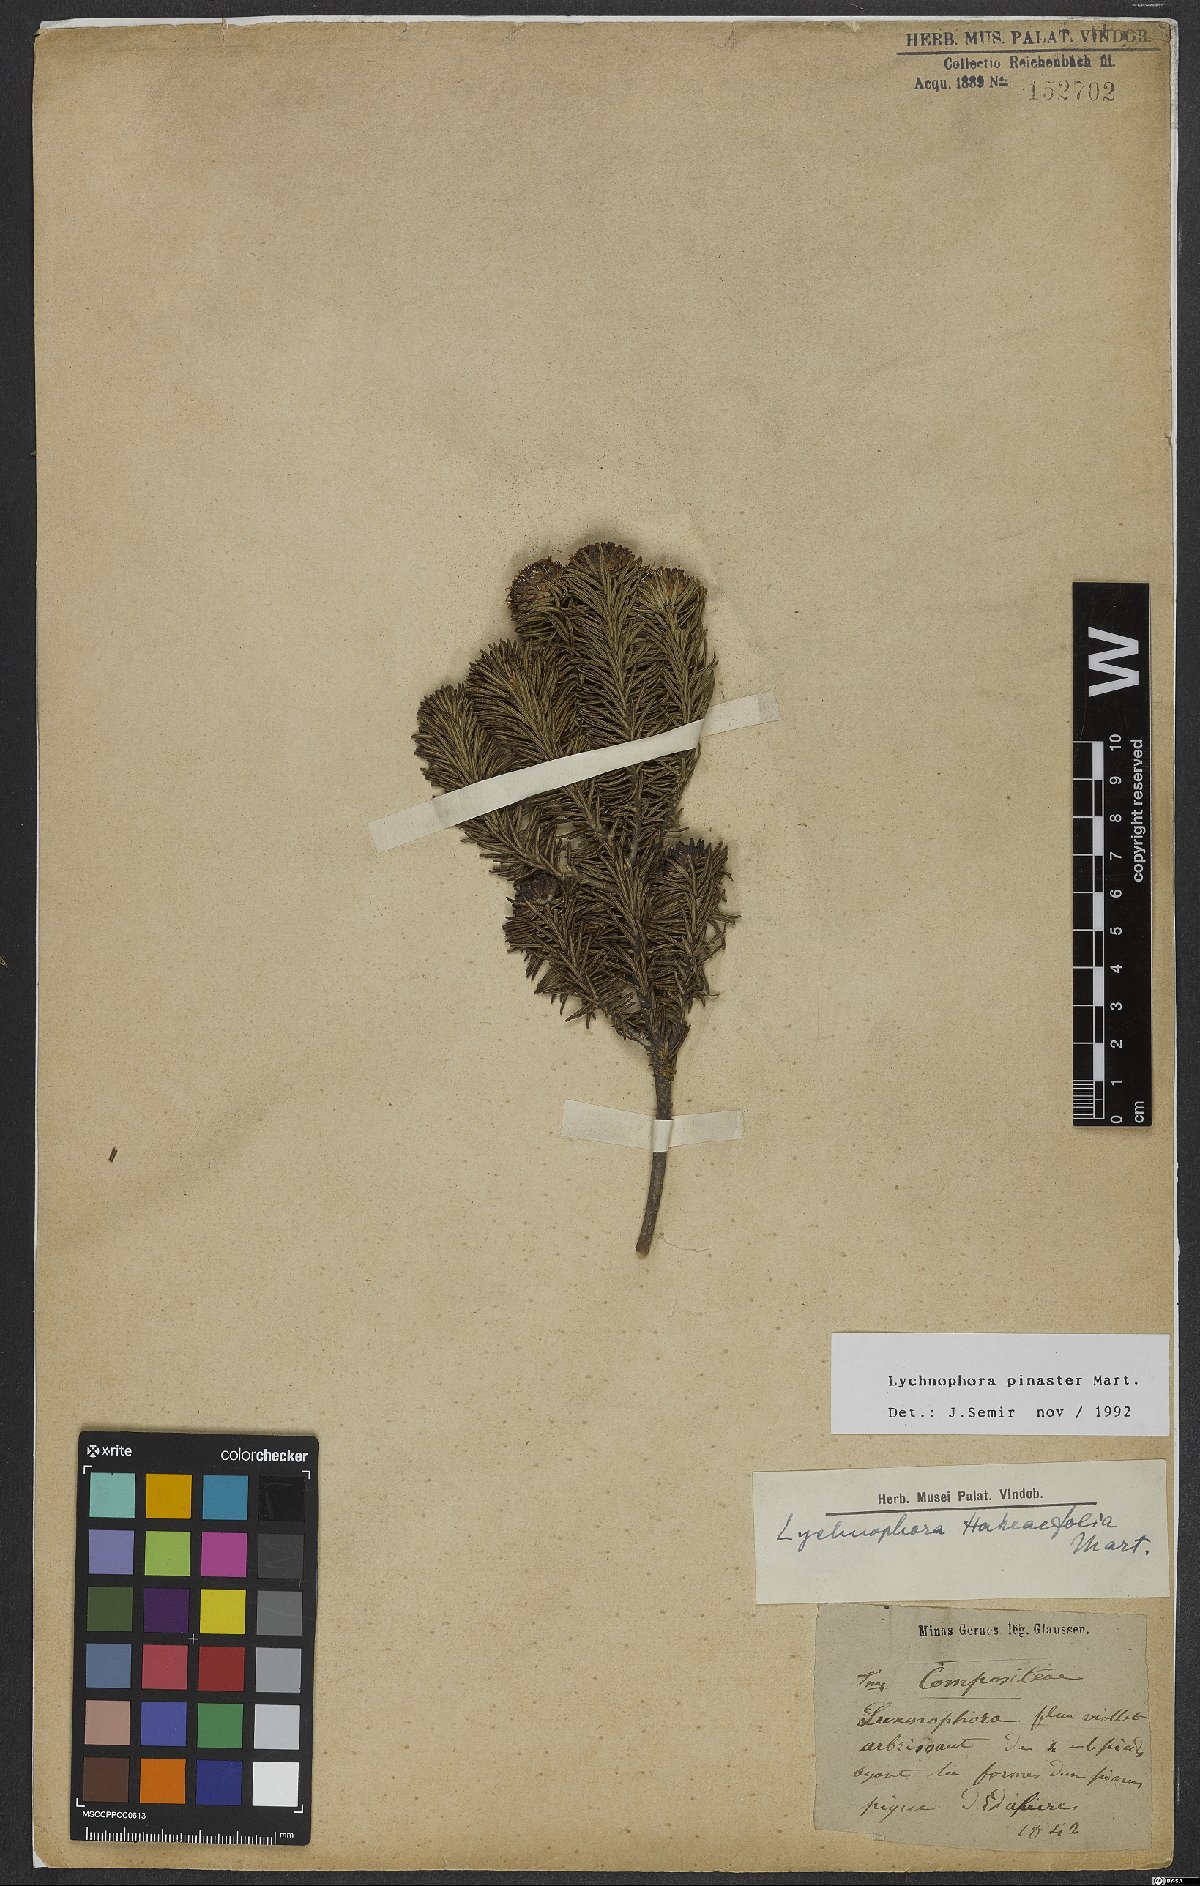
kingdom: Plantae
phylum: Tracheophyta
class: Magnoliopsida
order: Asterales
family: Asteraceae
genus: Lychnophora
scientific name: Lychnophora pinaster
